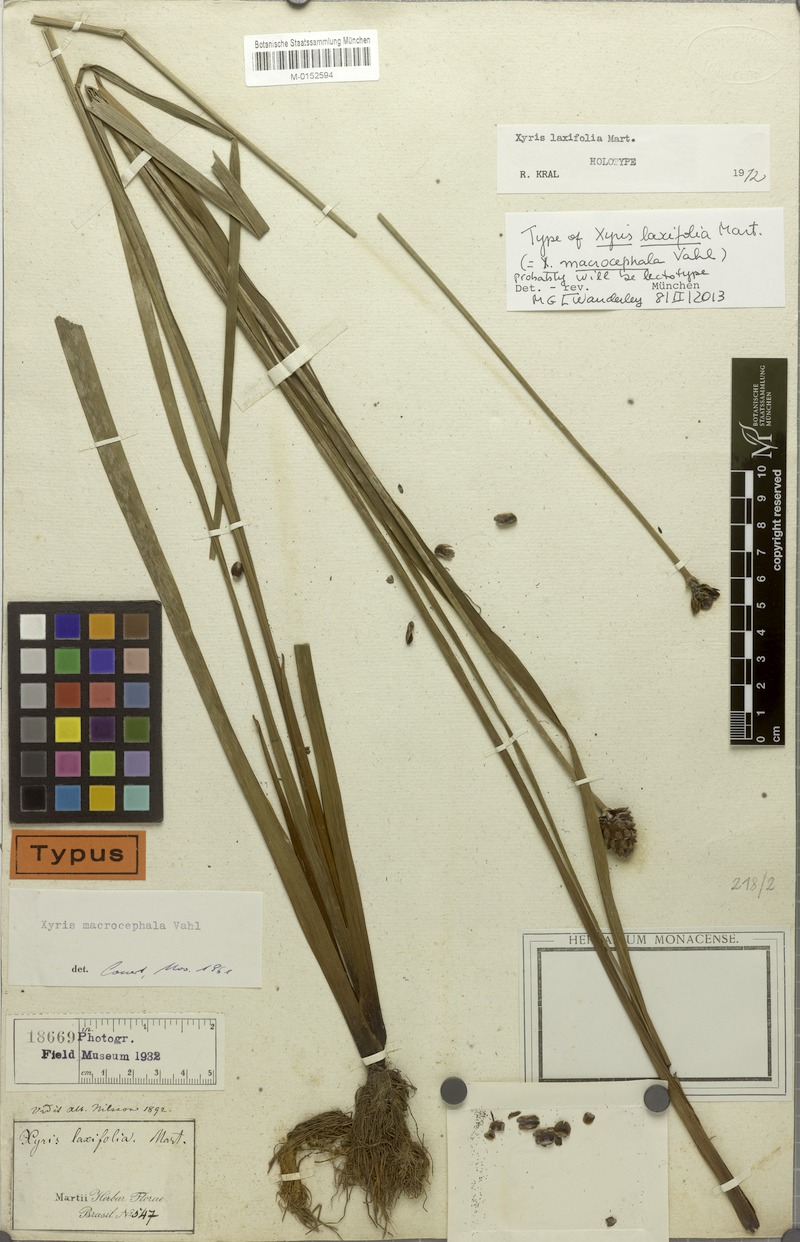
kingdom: Plantae
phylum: Tracheophyta
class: Liliopsida
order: Poales
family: Xyridaceae
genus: Xyris
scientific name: Xyris laxifolia
